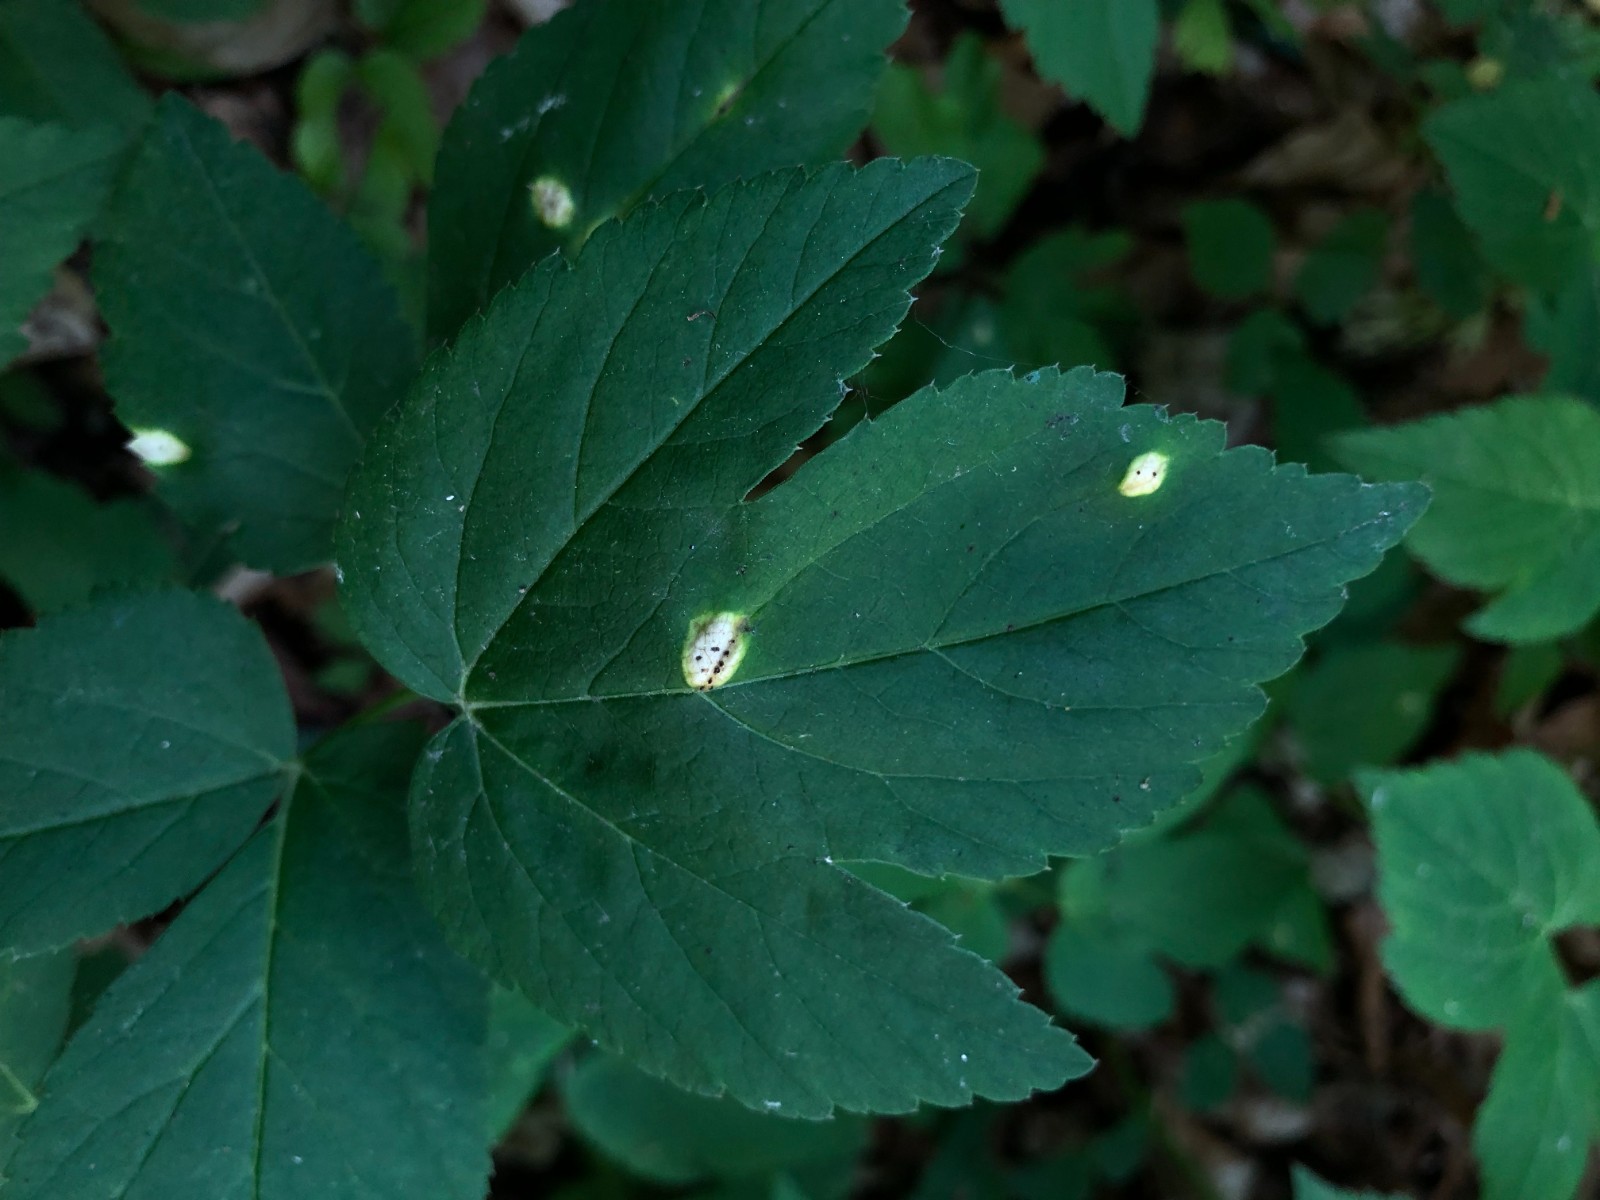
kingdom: Fungi
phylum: Basidiomycota
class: Pucciniomycetes
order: Pucciniales
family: Pucciniaceae
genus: Puccinia
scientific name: Puccinia
